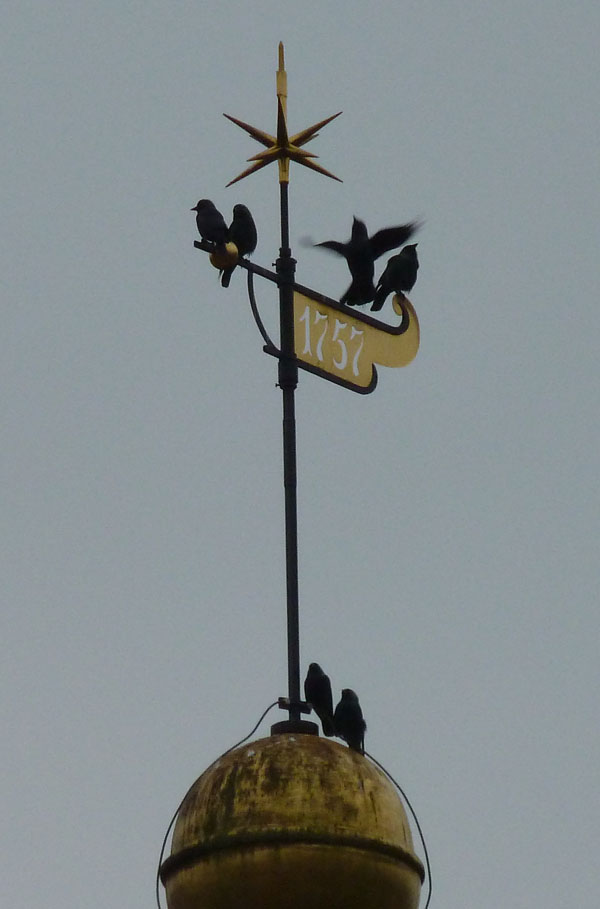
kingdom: Animalia
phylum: Chordata
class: Aves
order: Passeriformes
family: Corvidae
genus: Coloeus
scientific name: Coloeus monedula
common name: Western jackdaw
